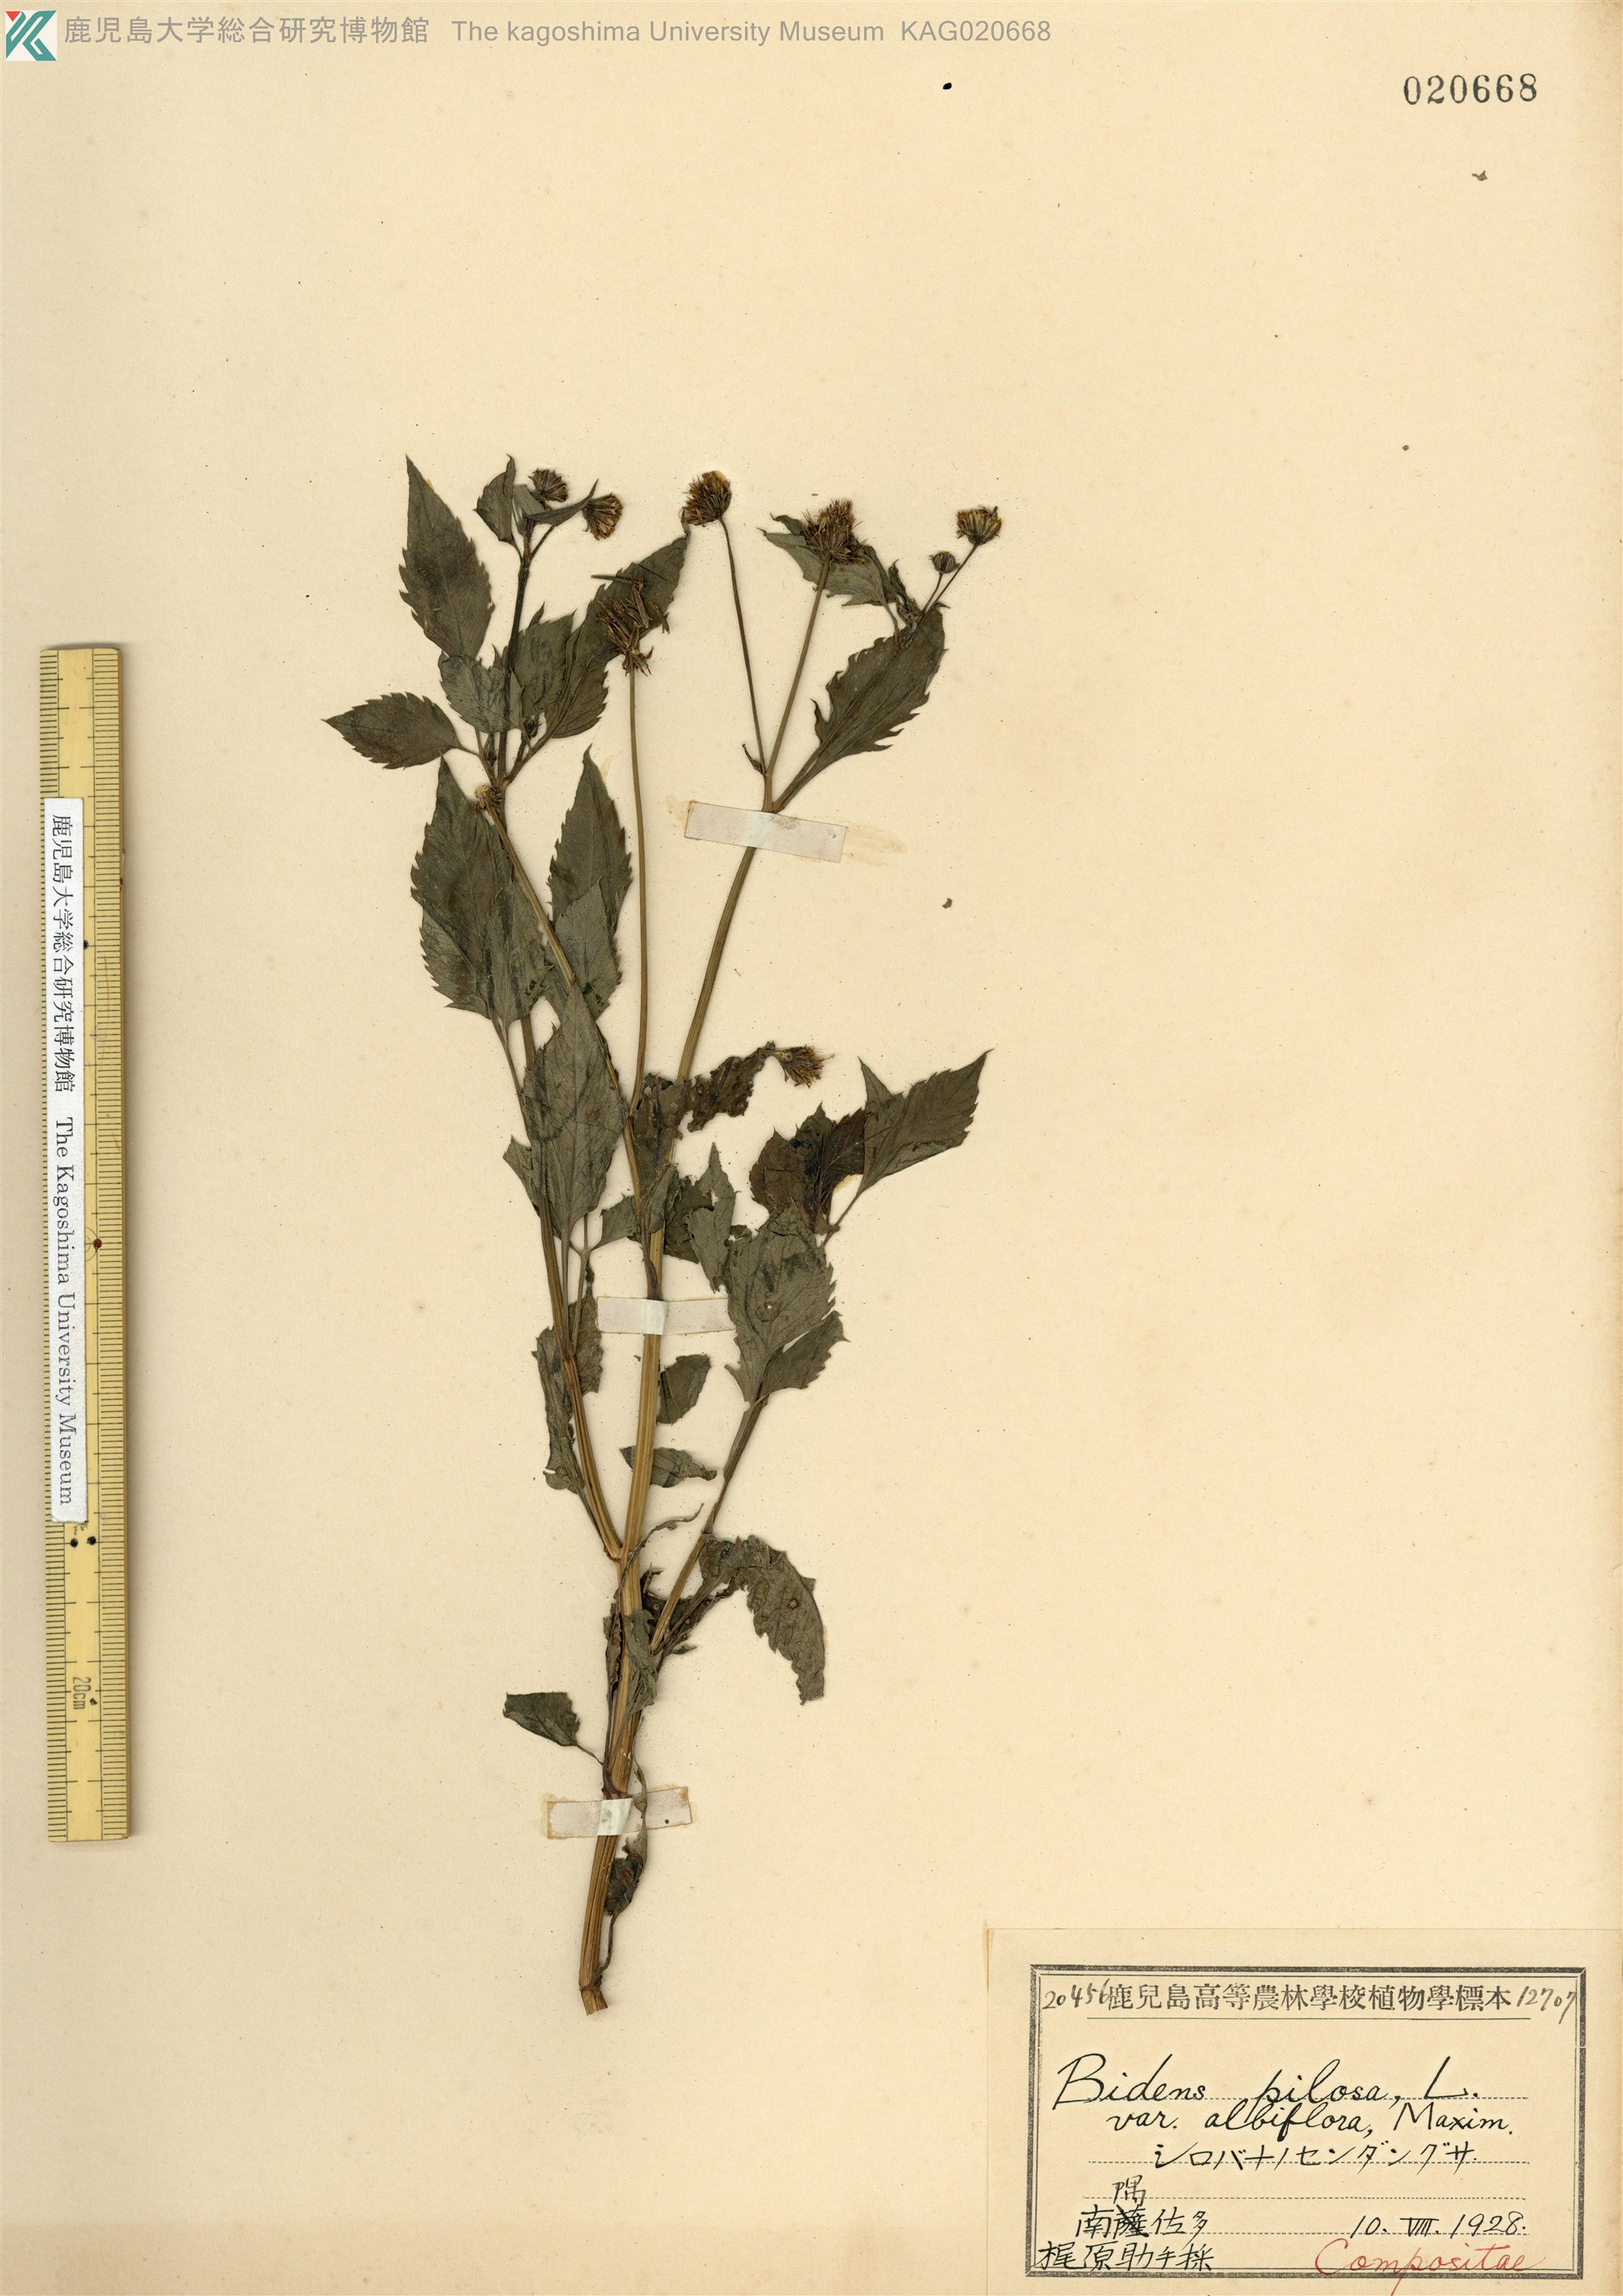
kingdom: Plantae
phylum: Tracheophyta
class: Magnoliopsida
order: Asterales
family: Asteraceae
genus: Bidens
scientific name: Bidens pilosa
